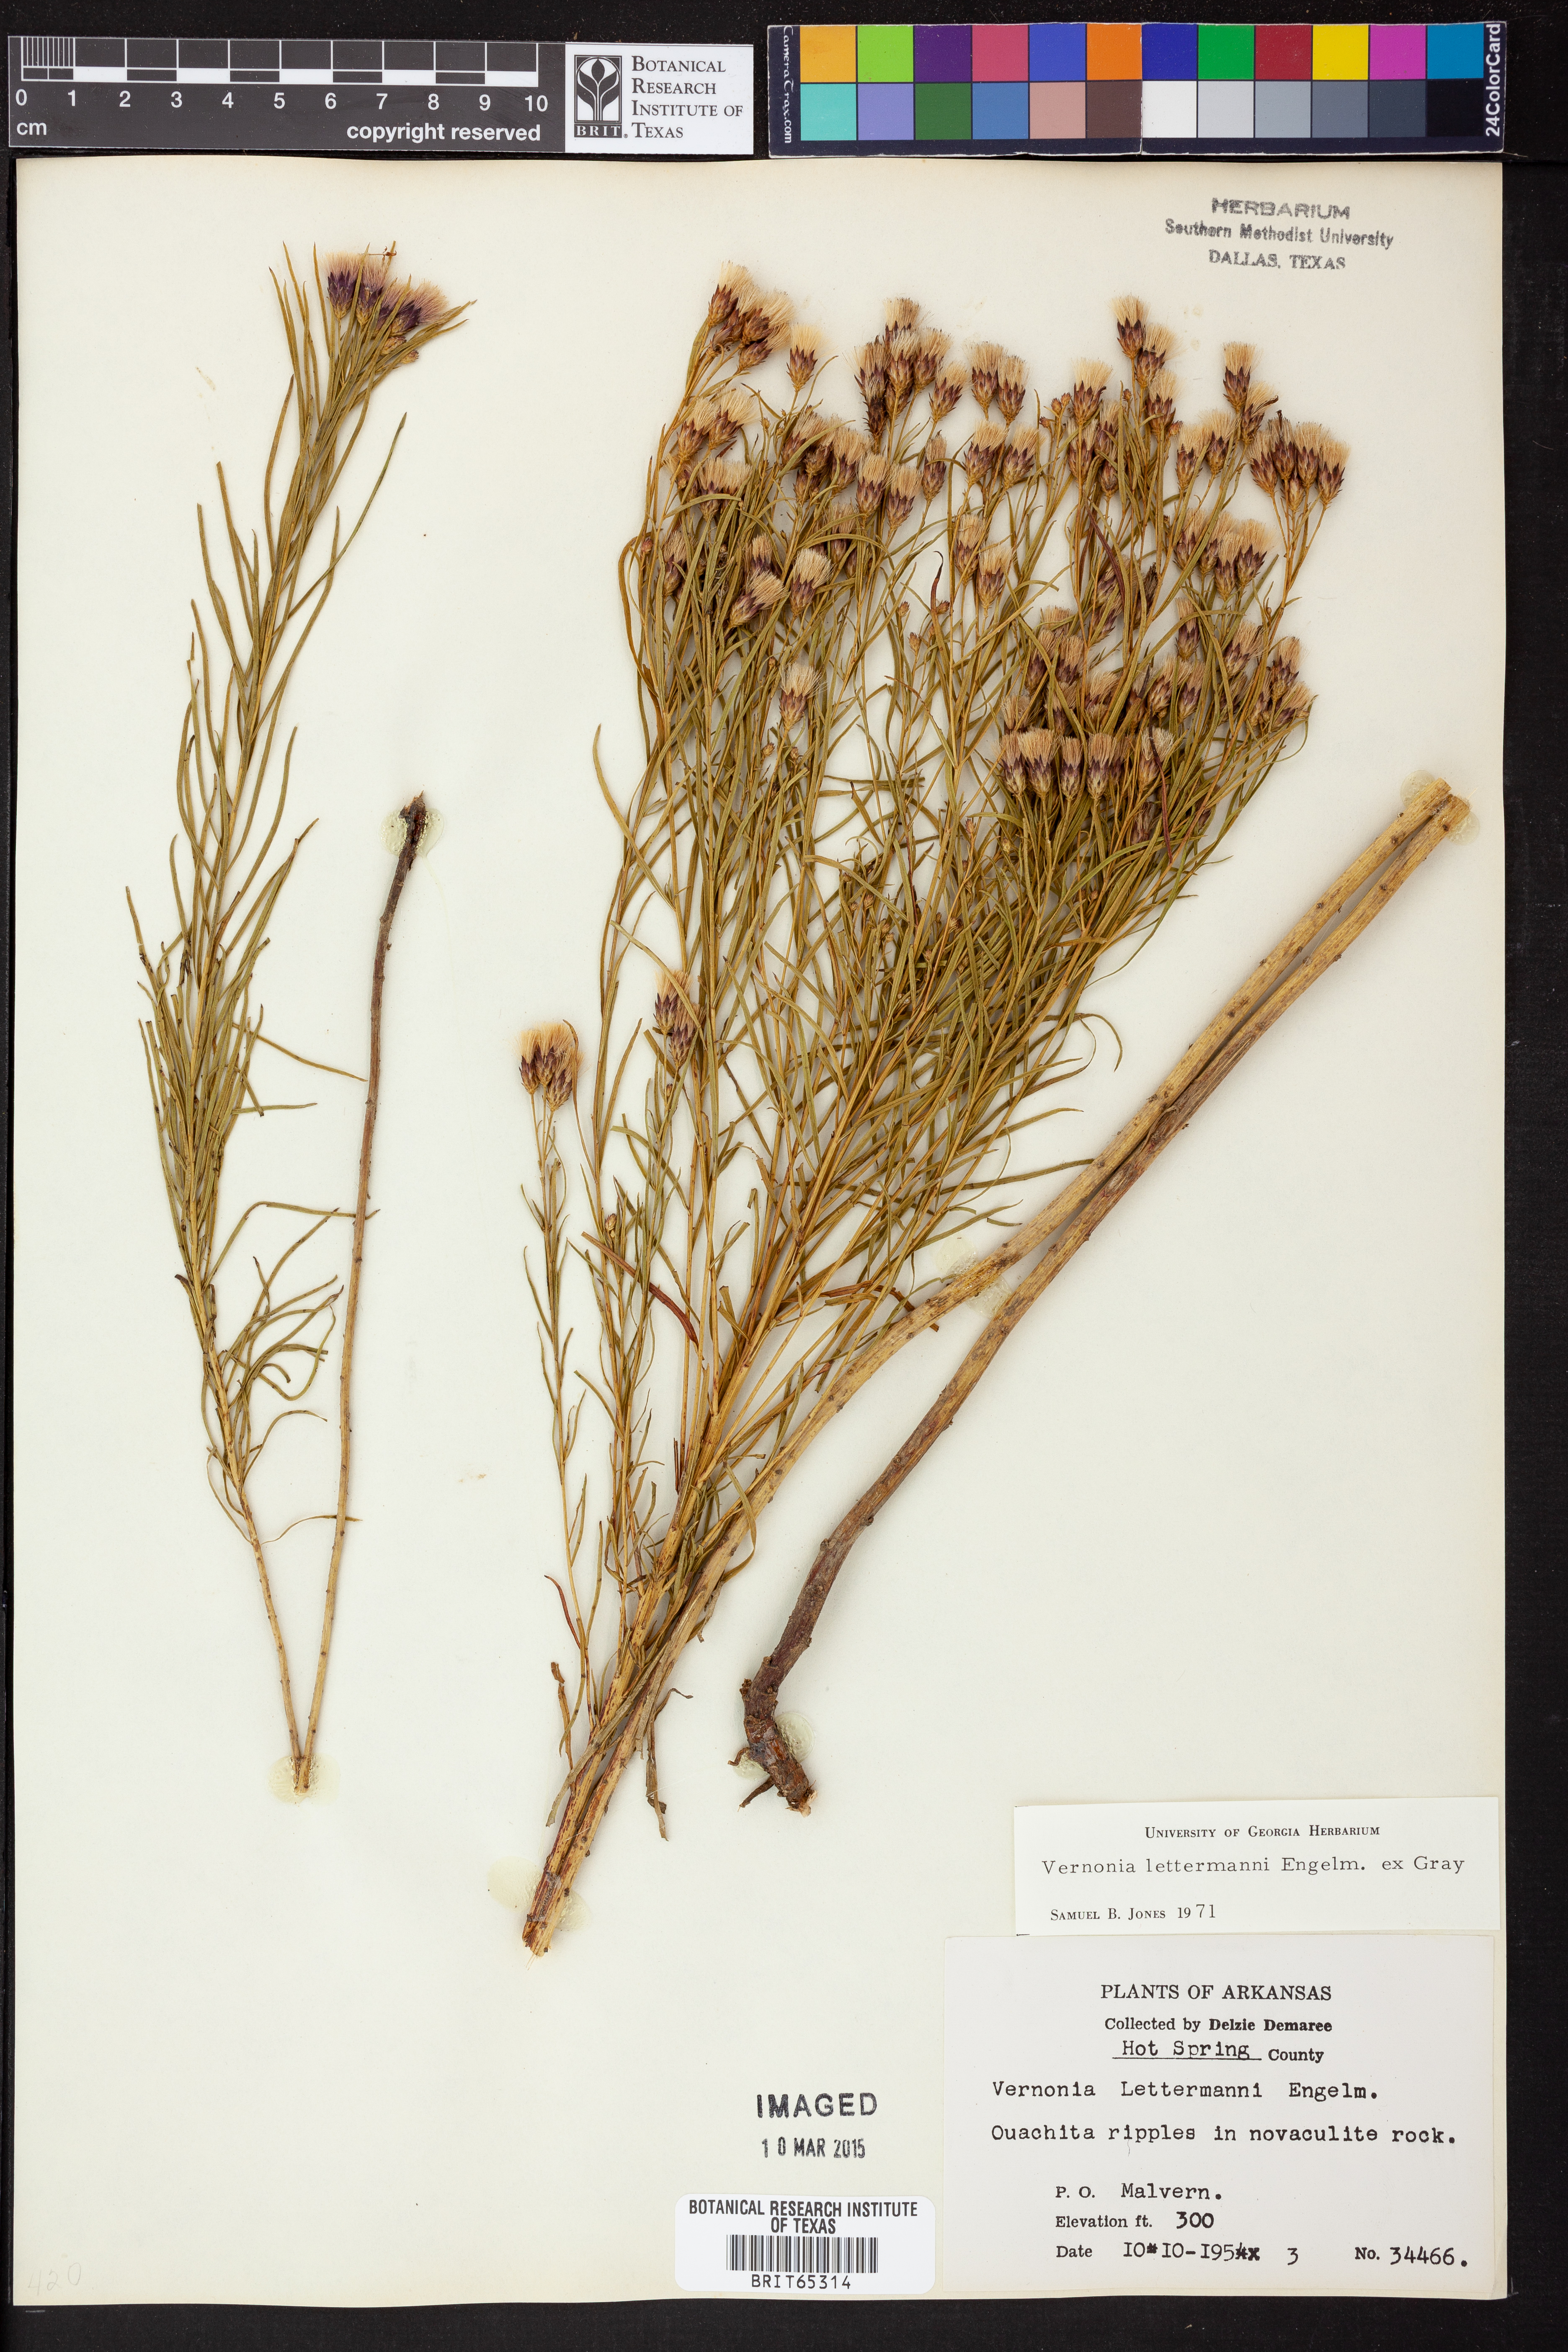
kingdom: Plantae
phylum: Tracheophyta
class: Magnoliopsida
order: Asterales
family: Asteraceae
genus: Vernonia
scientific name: Vernonia lettermannii
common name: Lettermann's ironweed
